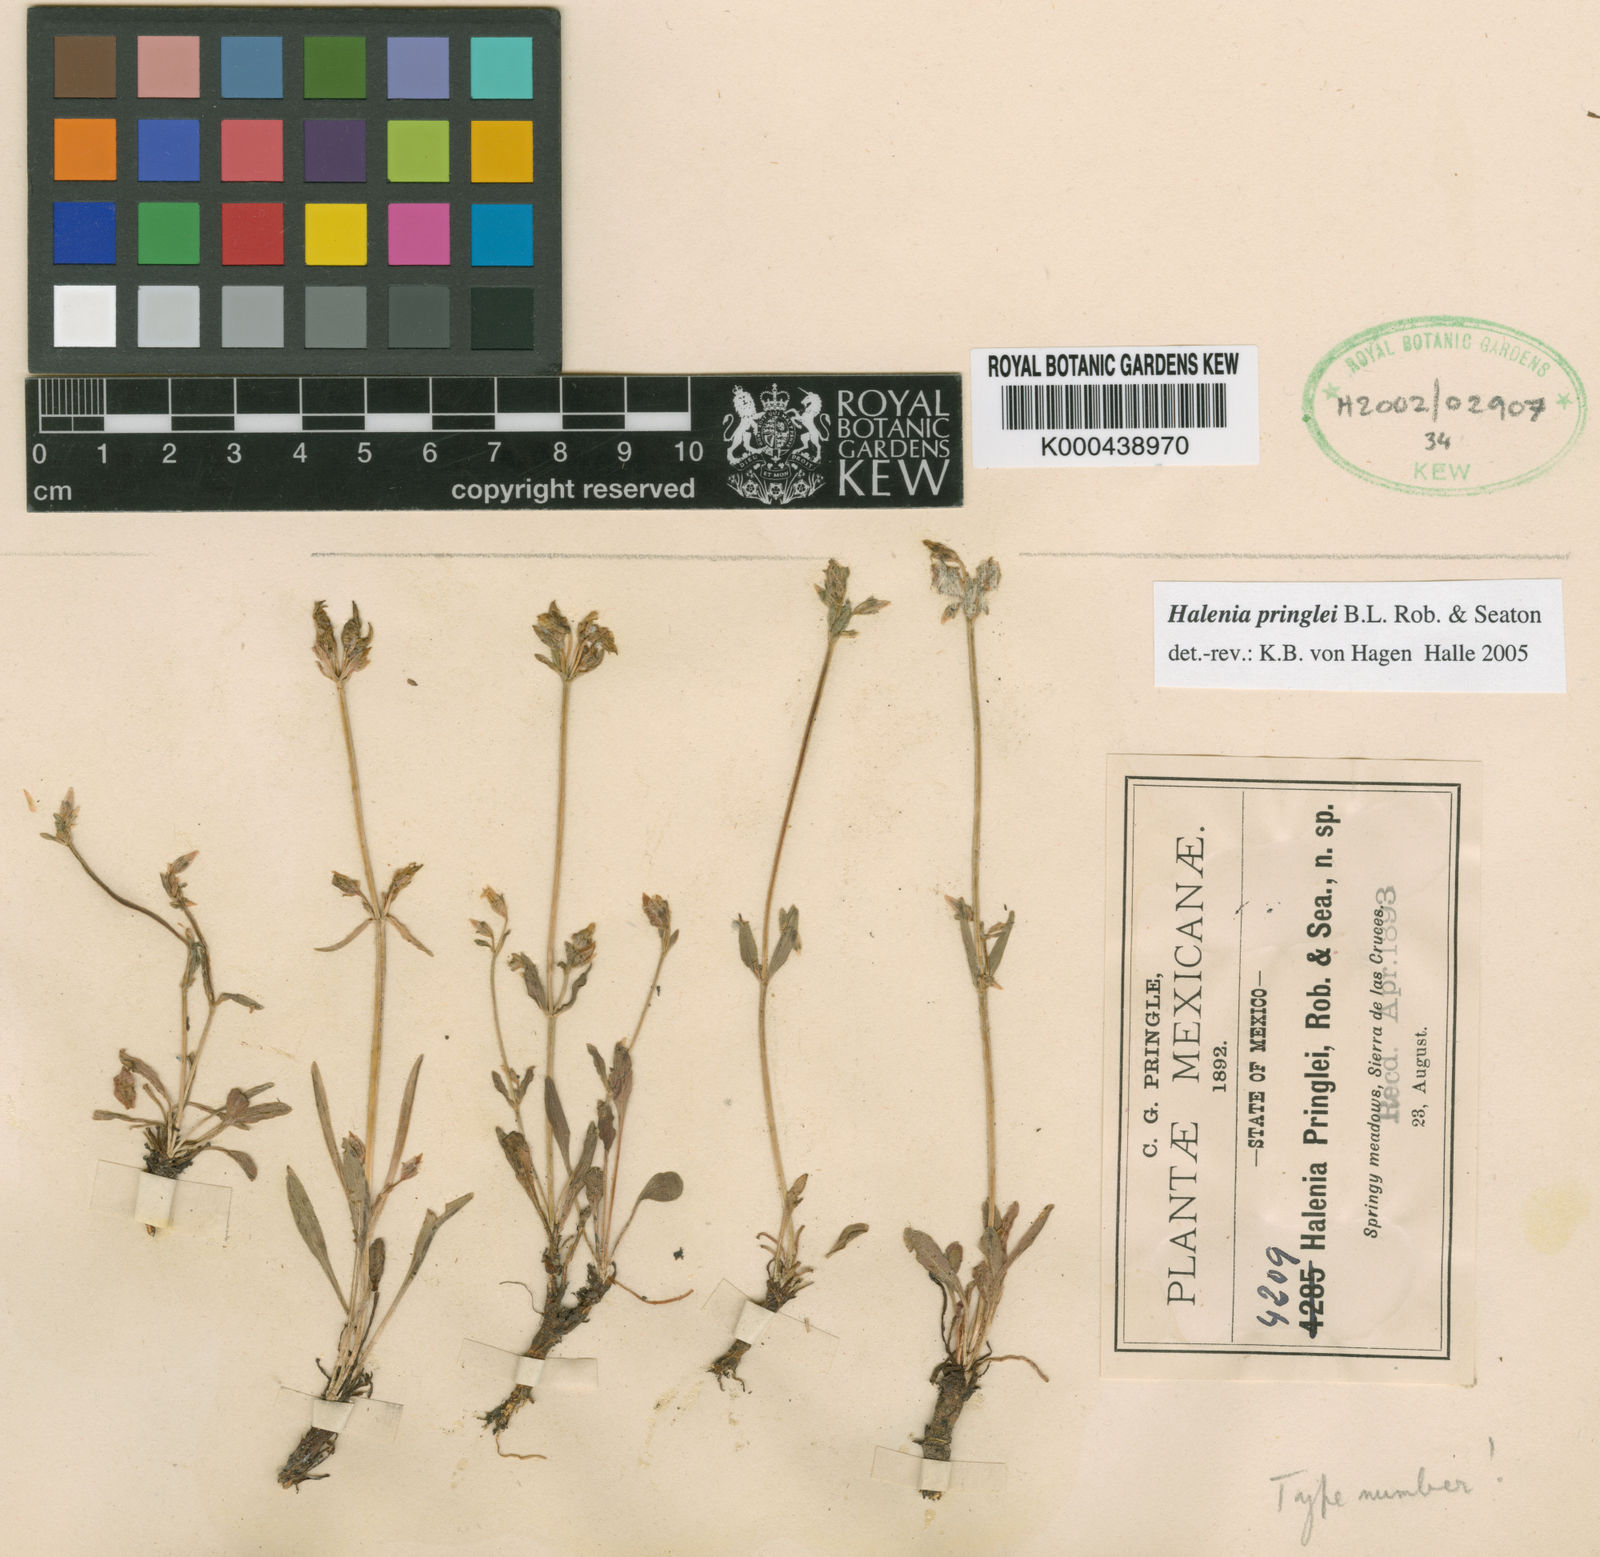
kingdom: Plantae
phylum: Tracheophyta
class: Magnoliopsida
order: Gentianales
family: Gentianaceae
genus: Halenia
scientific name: Halenia pringlei
